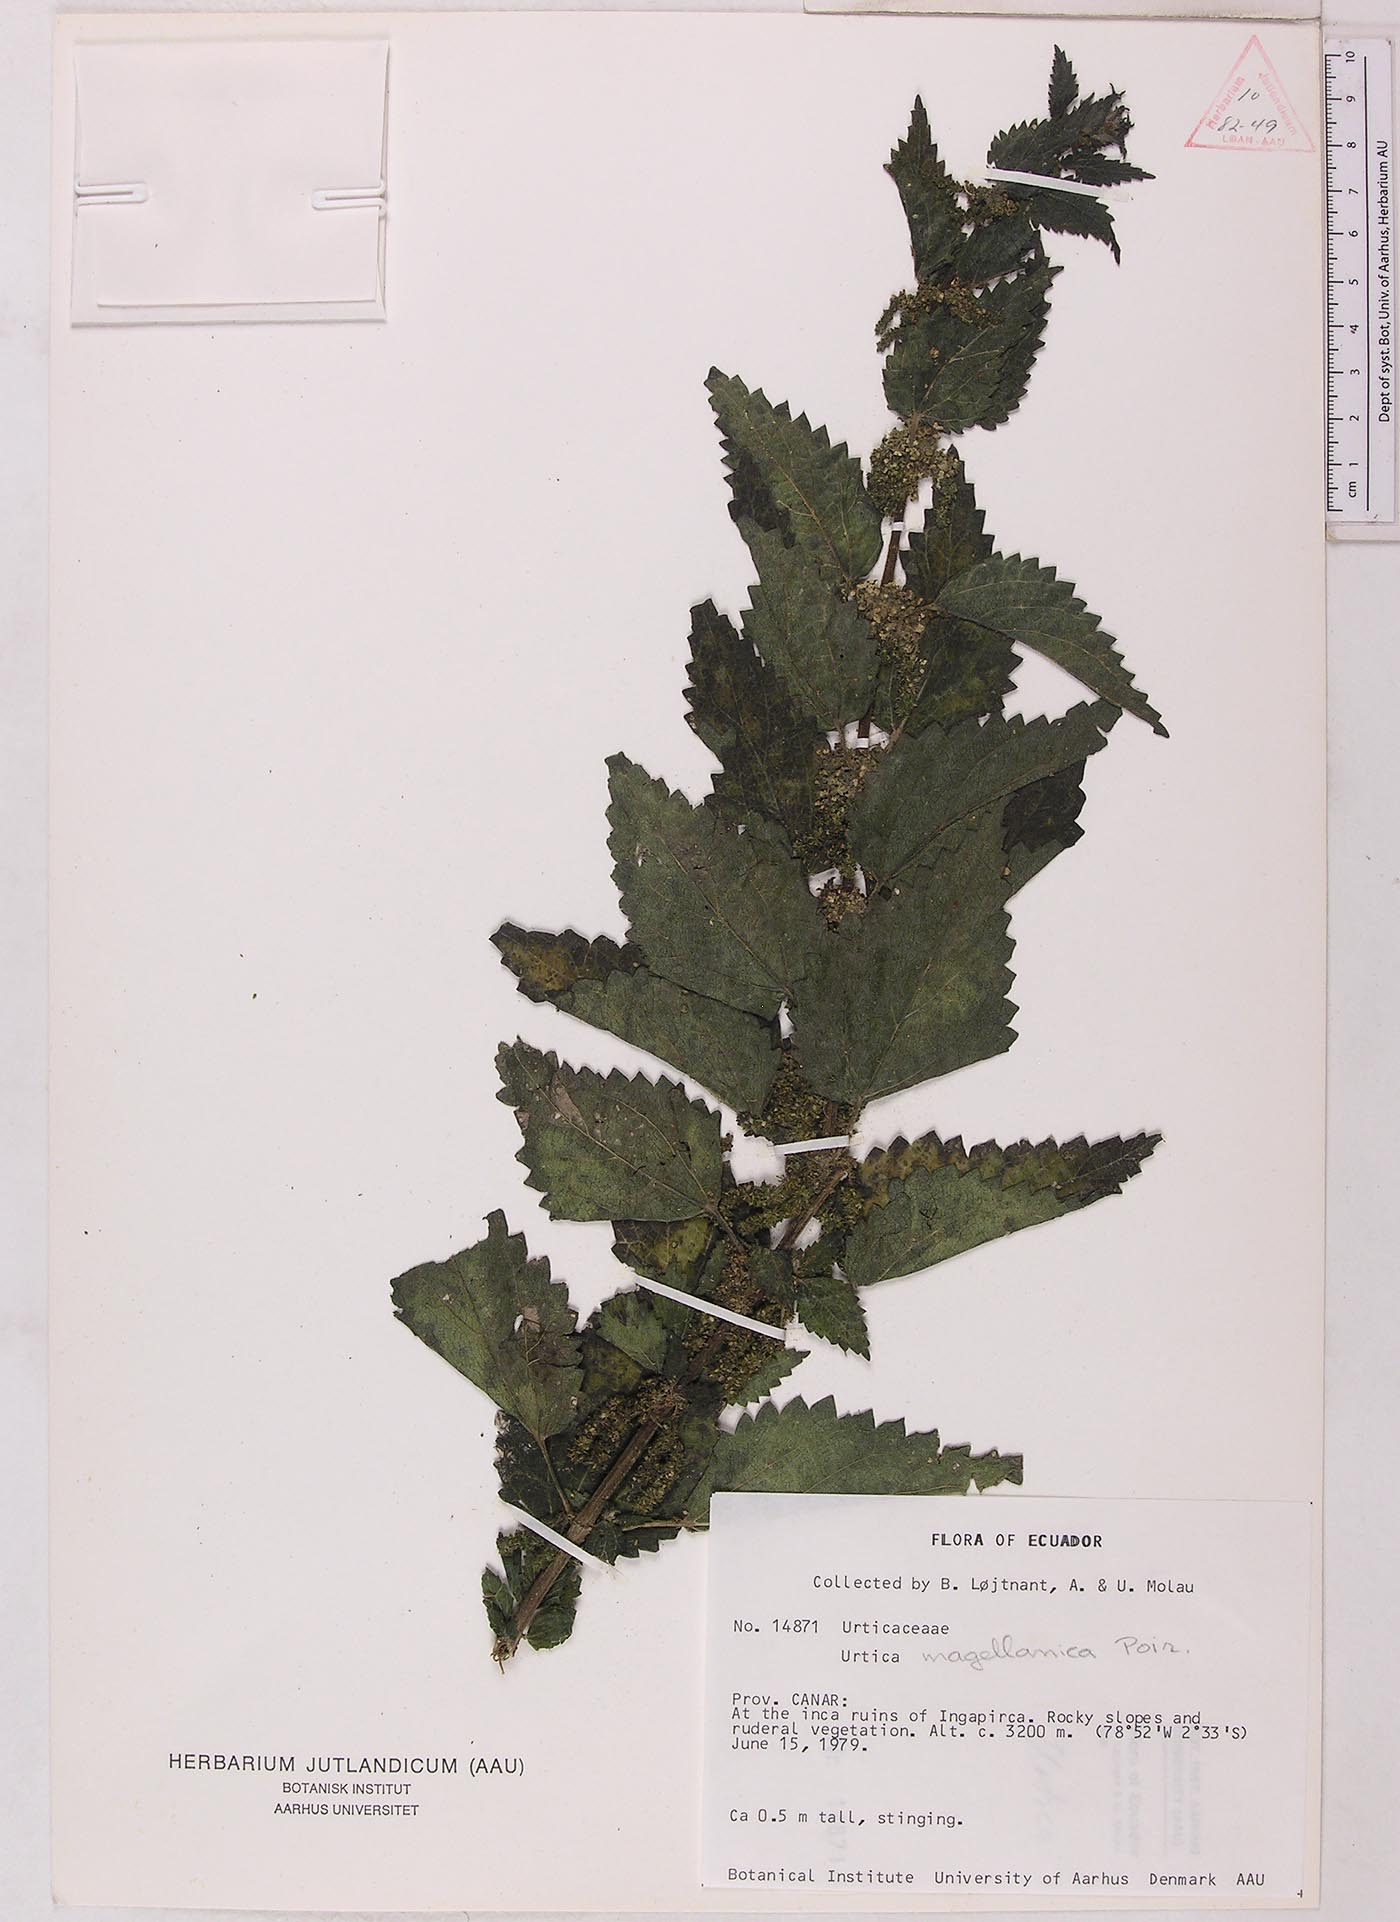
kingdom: Plantae
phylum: Tracheophyta
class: Magnoliopsida
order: Rosales
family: Urticaceae
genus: Urtica
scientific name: Urtica leptophylla
